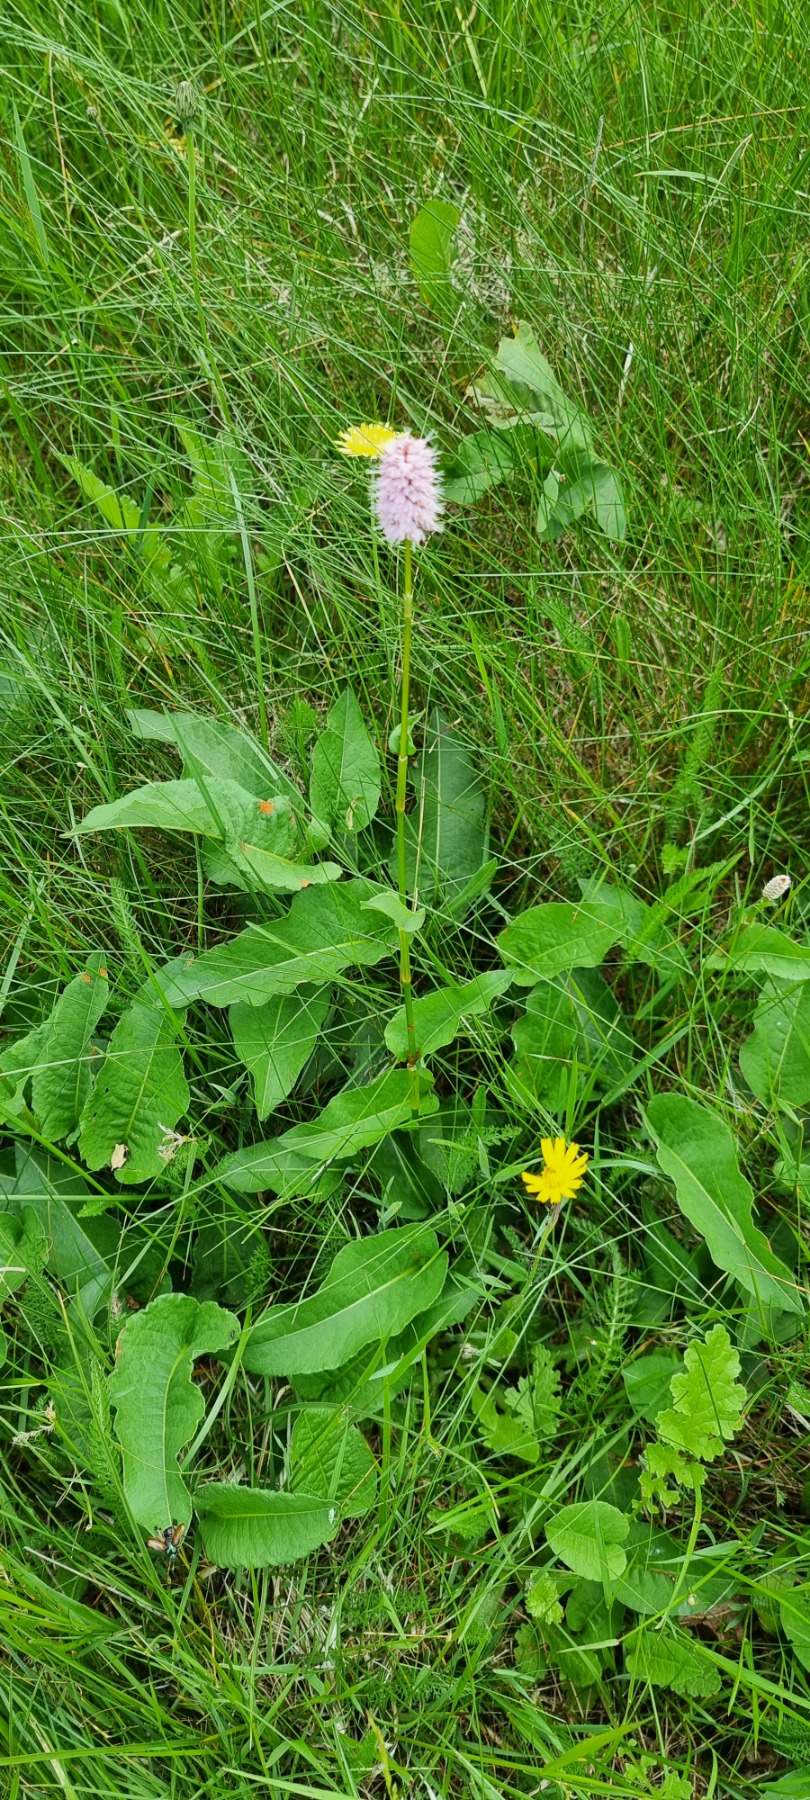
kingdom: Plantae
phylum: Tracheophyta
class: Magnoliopsida
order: Caryophyllales
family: Polygonaceae
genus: Bistorta
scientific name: Bistorta officinalis
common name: Slangeurt
